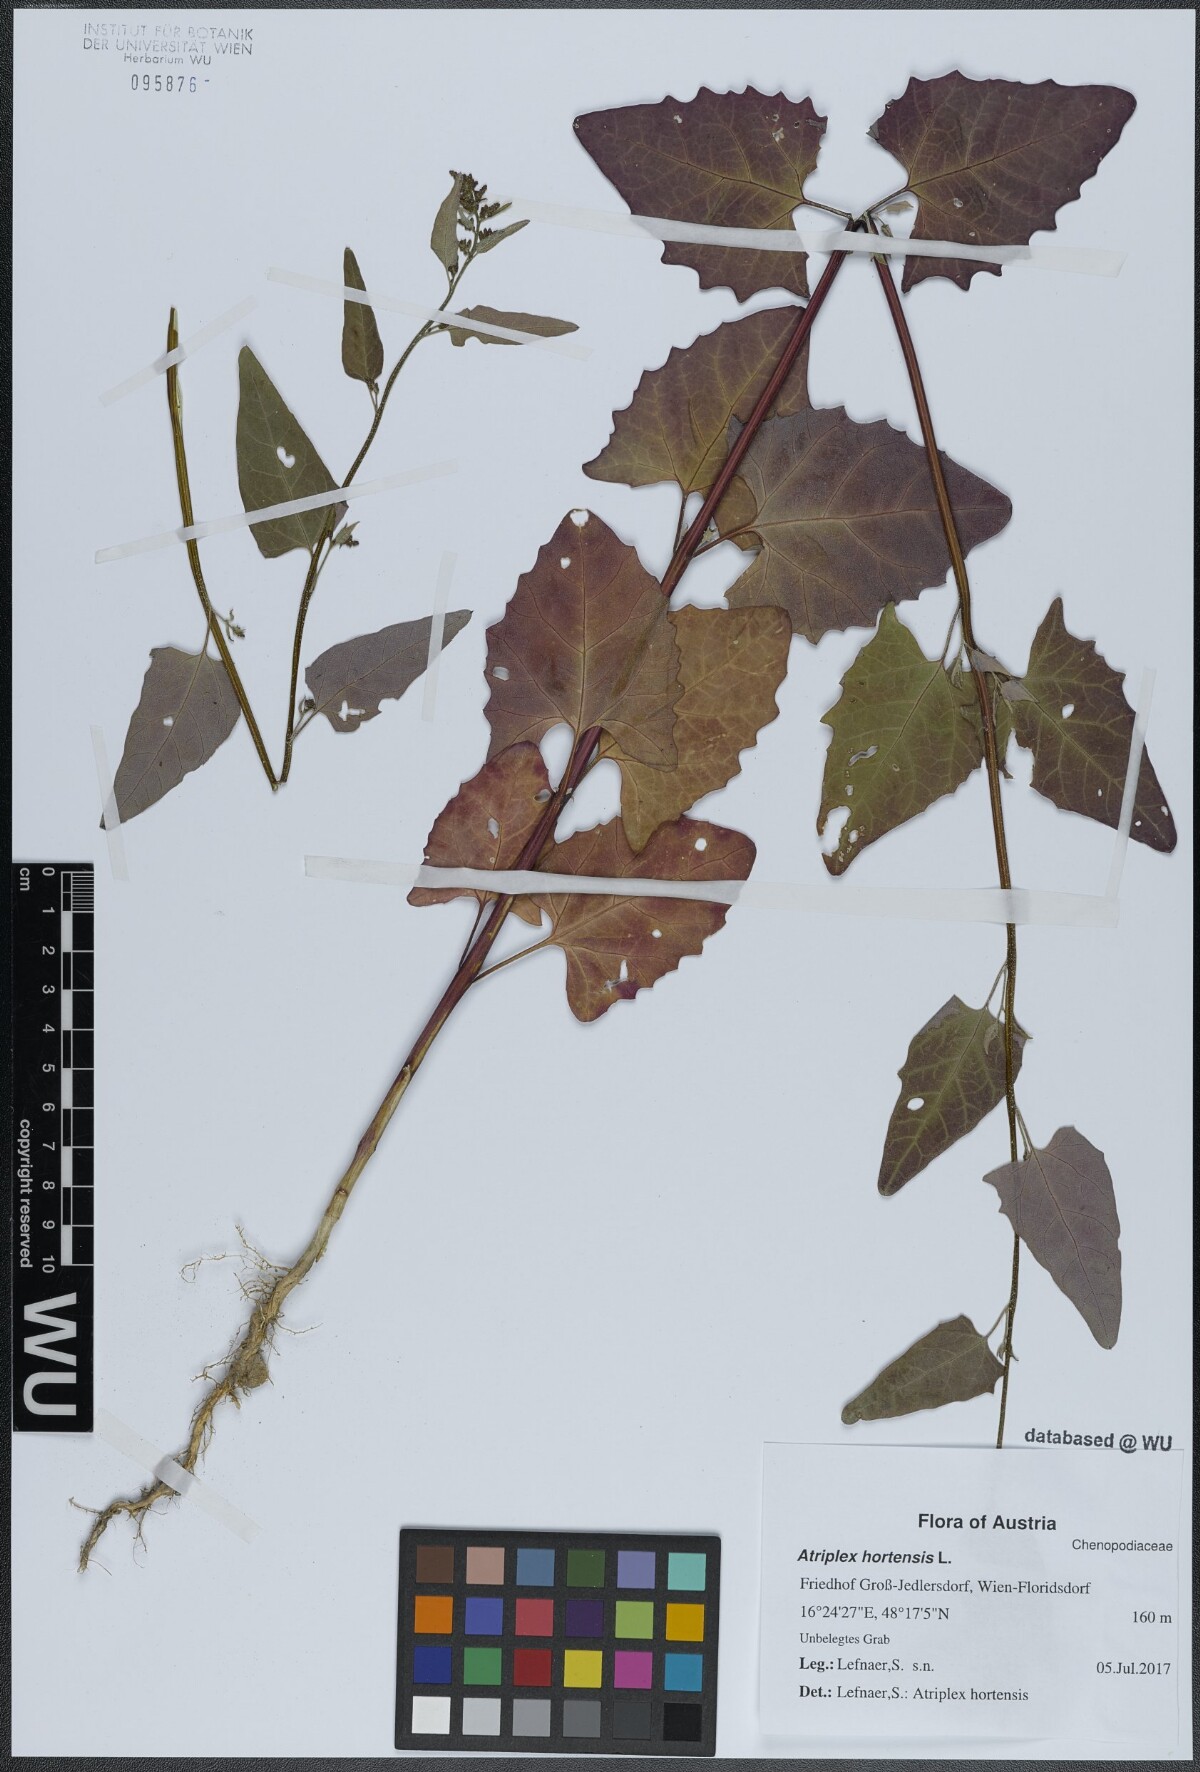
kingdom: Plantae
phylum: Tracheophyta
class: Magnoliopsida
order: Caryophyllales
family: Amaranthaceae
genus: Atriplex
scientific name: Atriplex hortensis
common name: Garden orache
